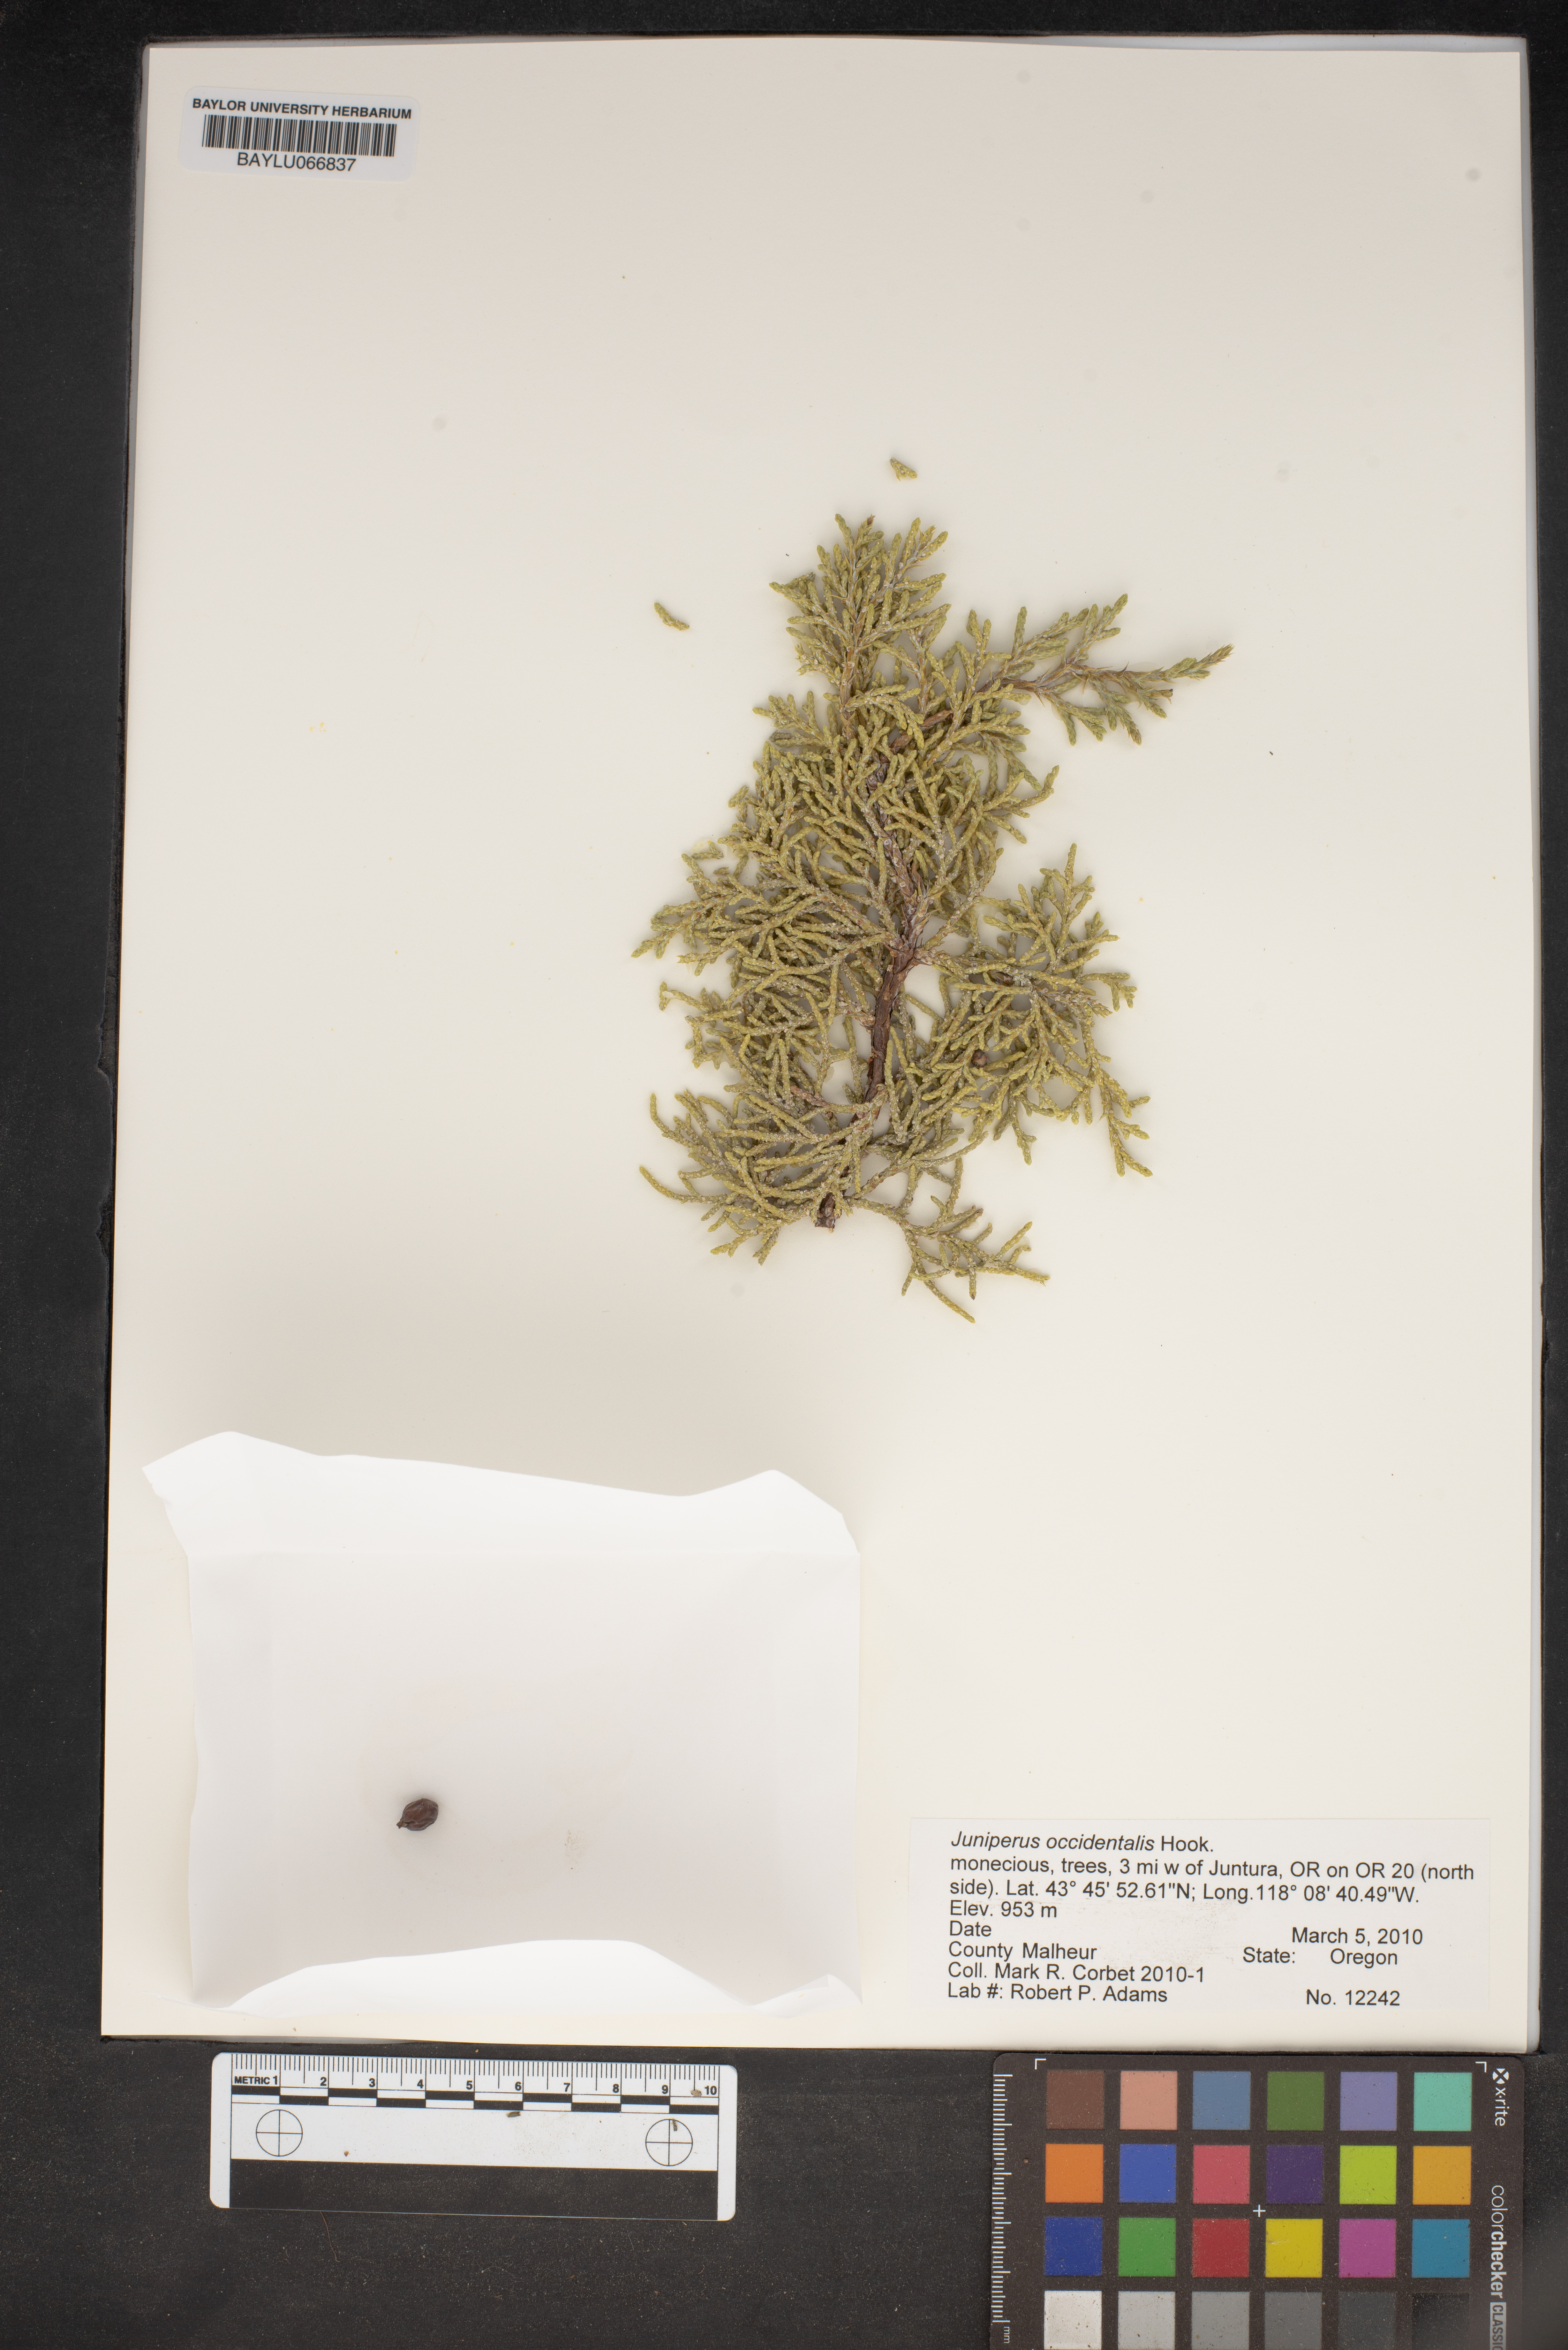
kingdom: Plantae
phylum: Tracheophyta
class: Pinopsida
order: Pinales
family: Cupressaceae
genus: Juniperus
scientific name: Juniperus occidentalis
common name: Western juniper
